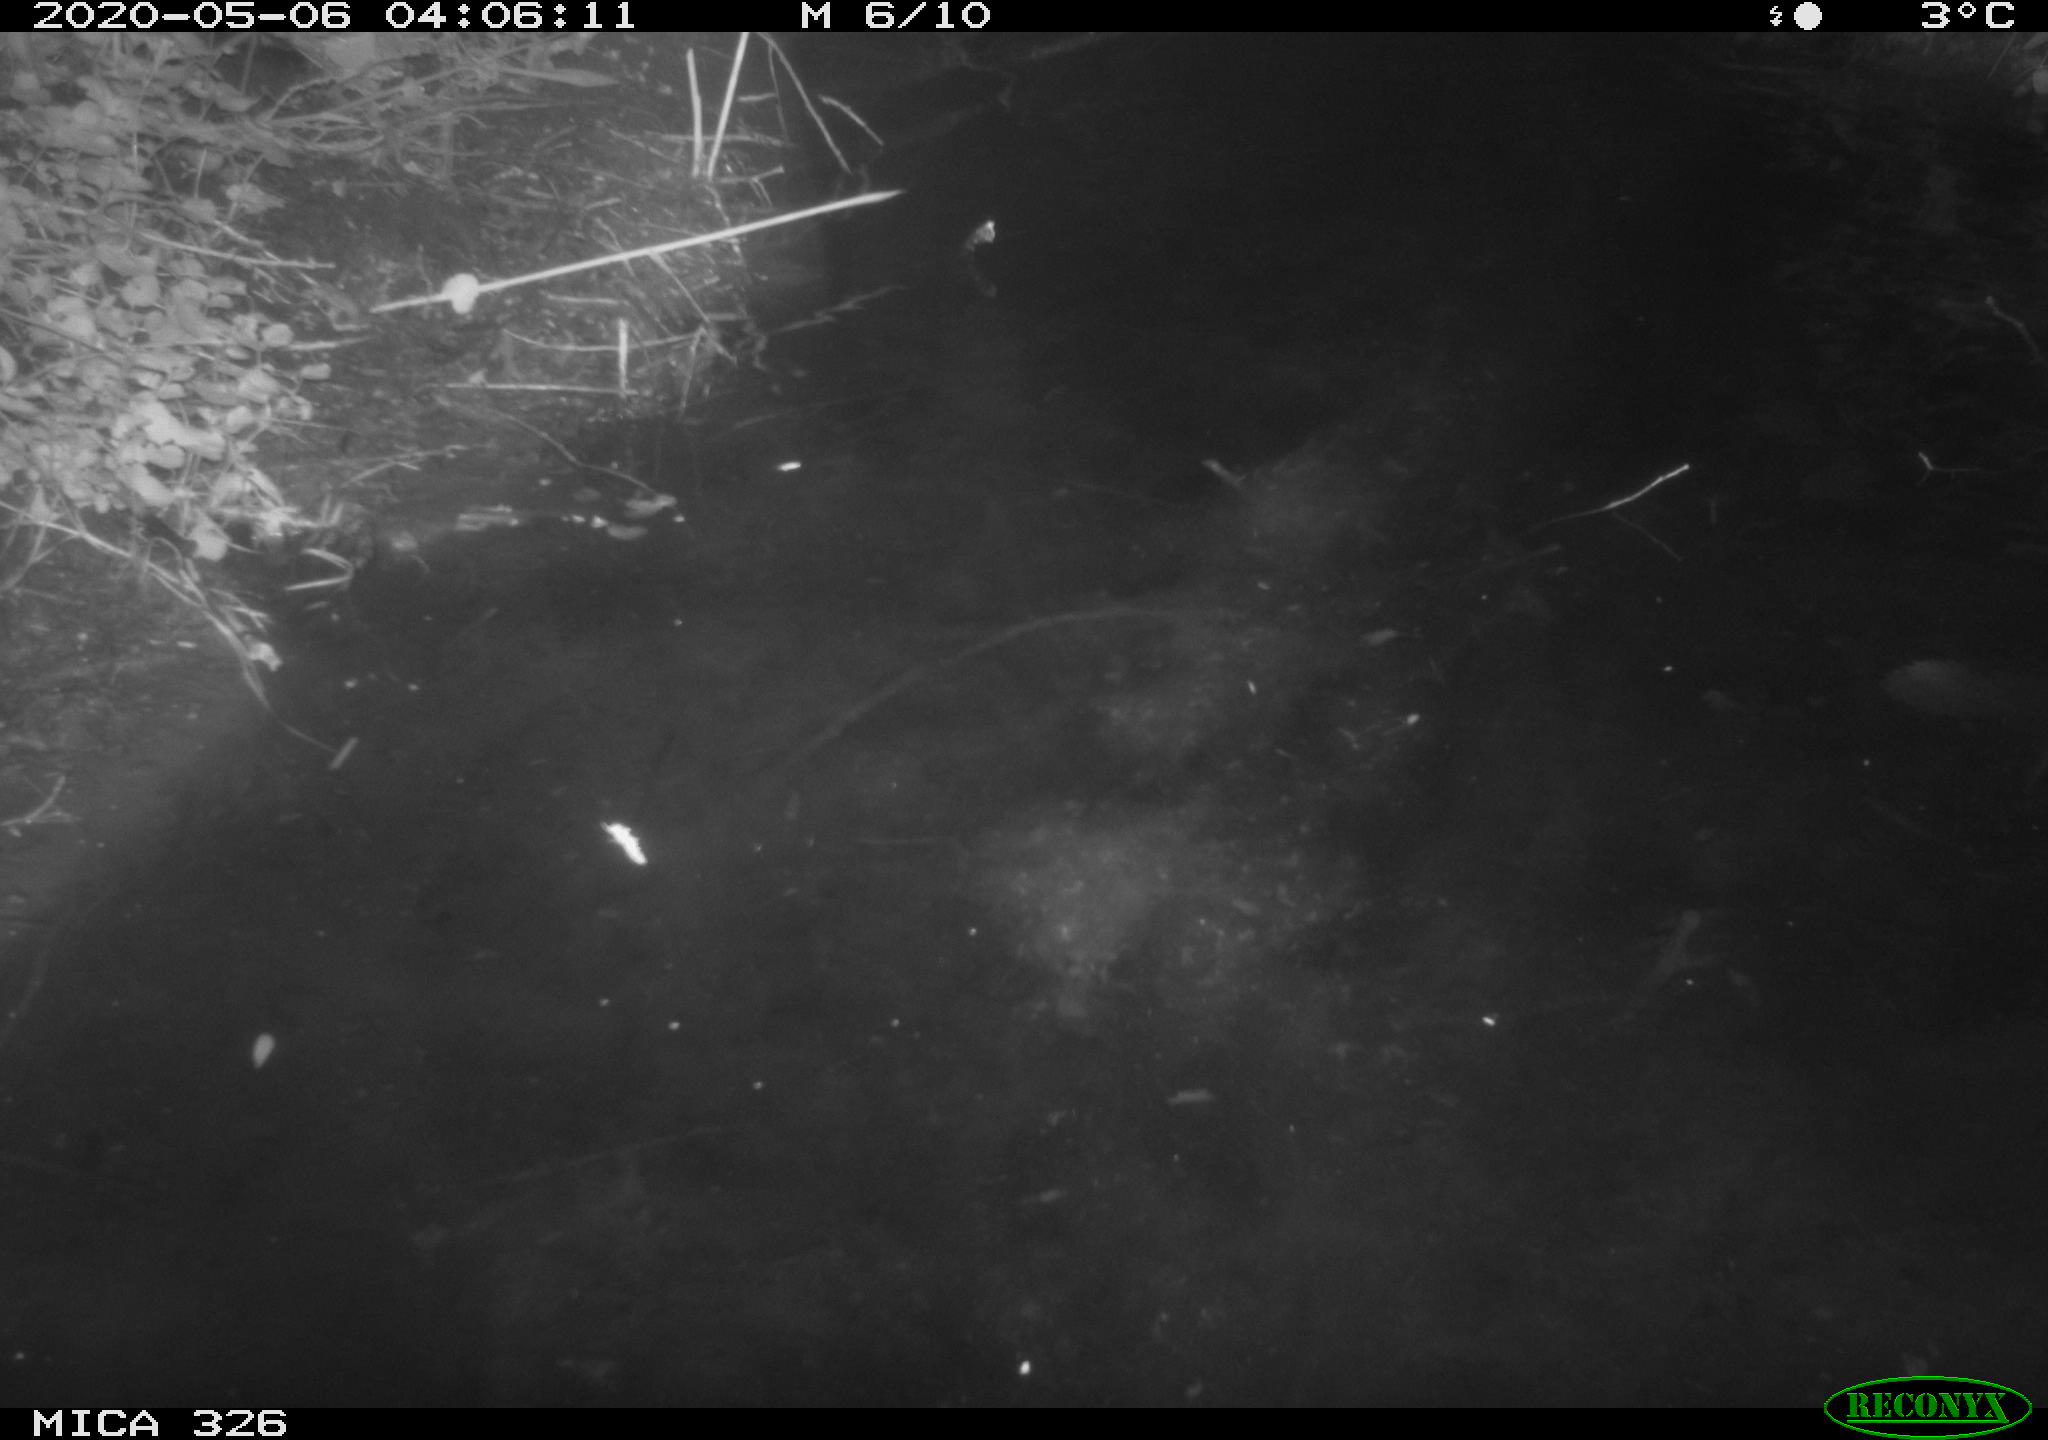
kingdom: Animalia
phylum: Chordata
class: Mammalia
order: Rodentia
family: Myocastoridae
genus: Myocastor
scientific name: Myocastor coypus
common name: Coypu
